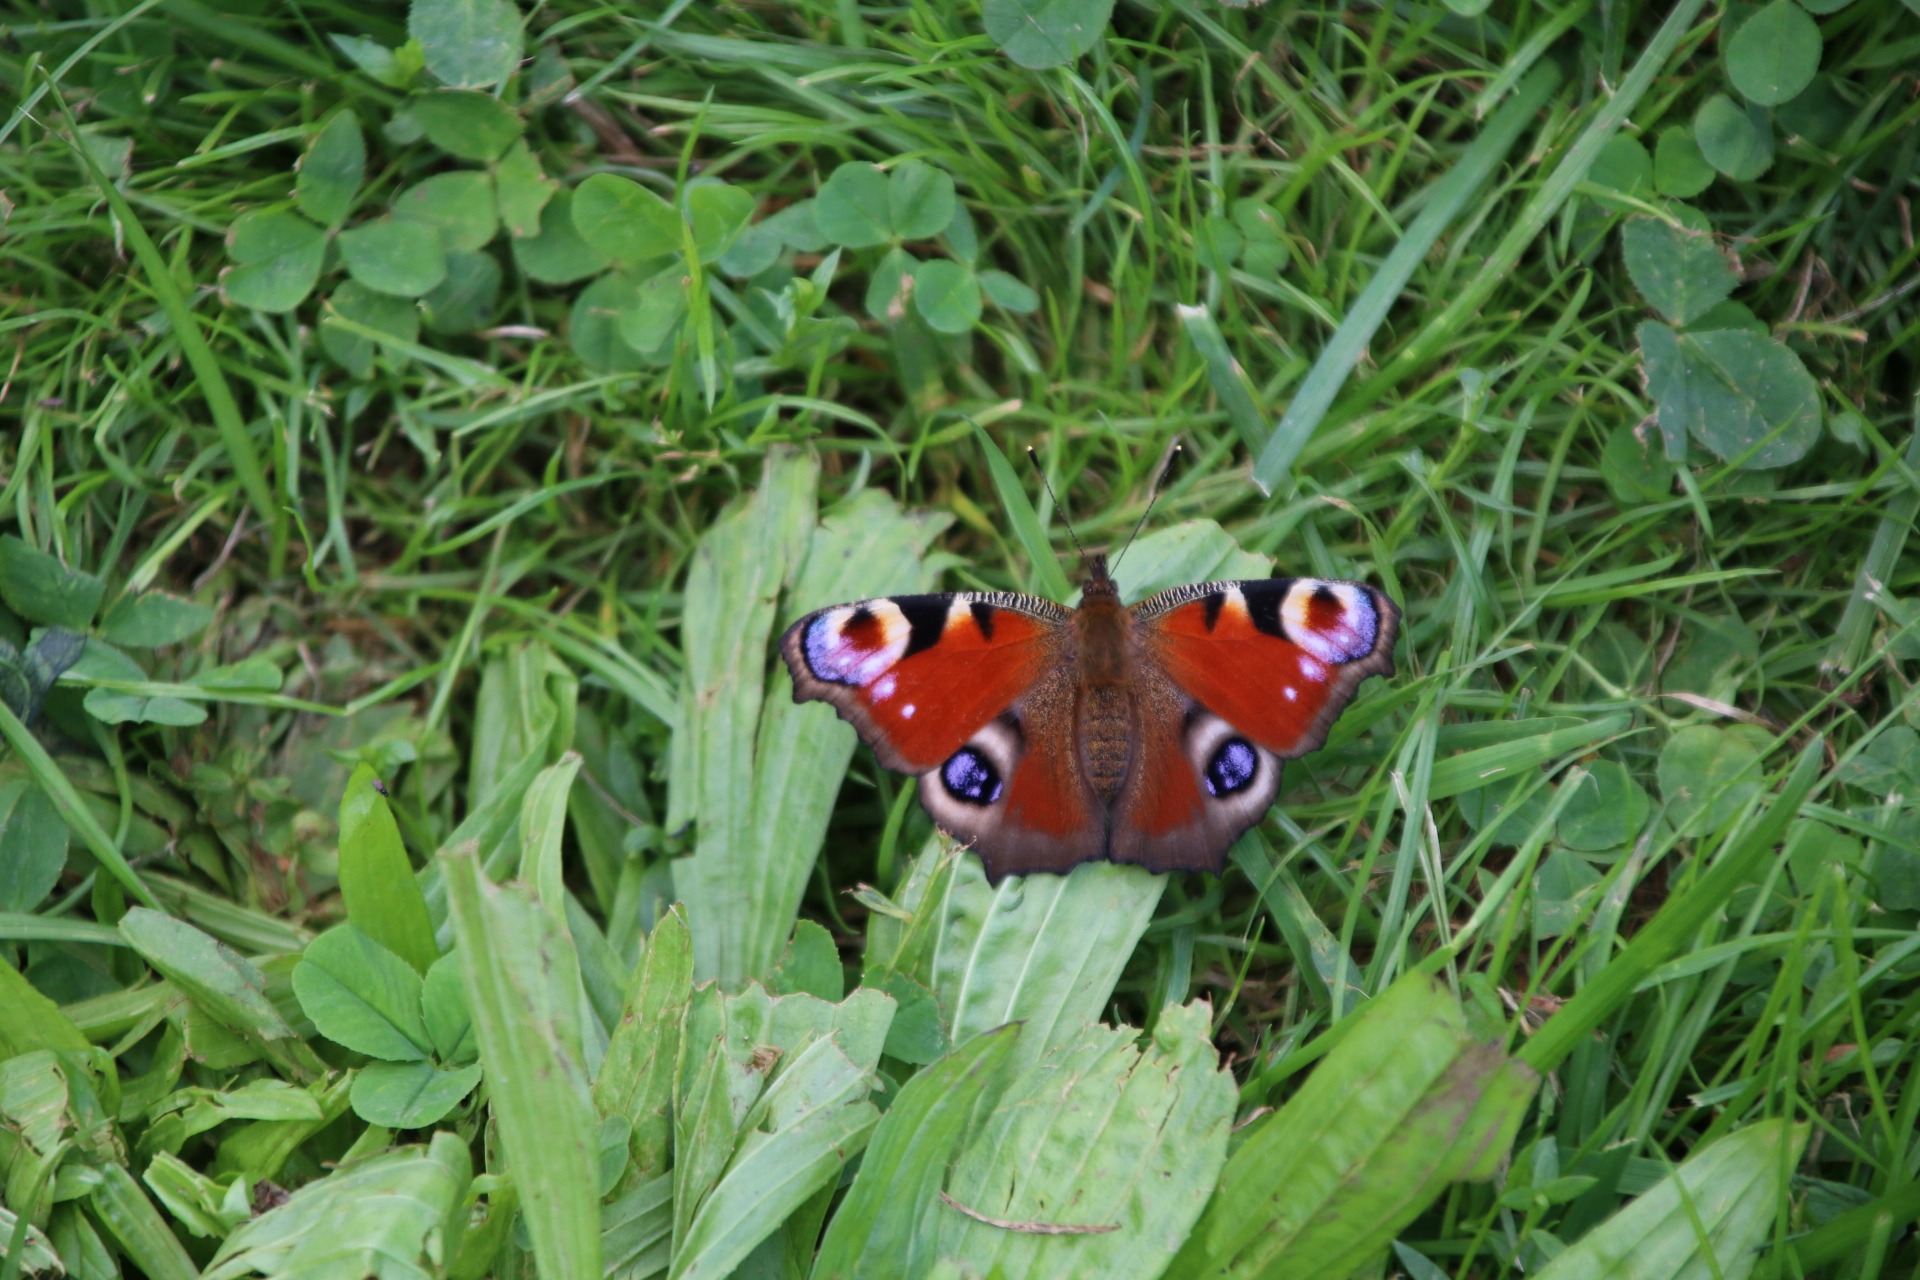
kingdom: Animalia
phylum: Arthropoda
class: Insecta
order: Lepidoptera
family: Nymphalidae
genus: Aglais
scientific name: Aglais io
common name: Dagpåfugleøje
